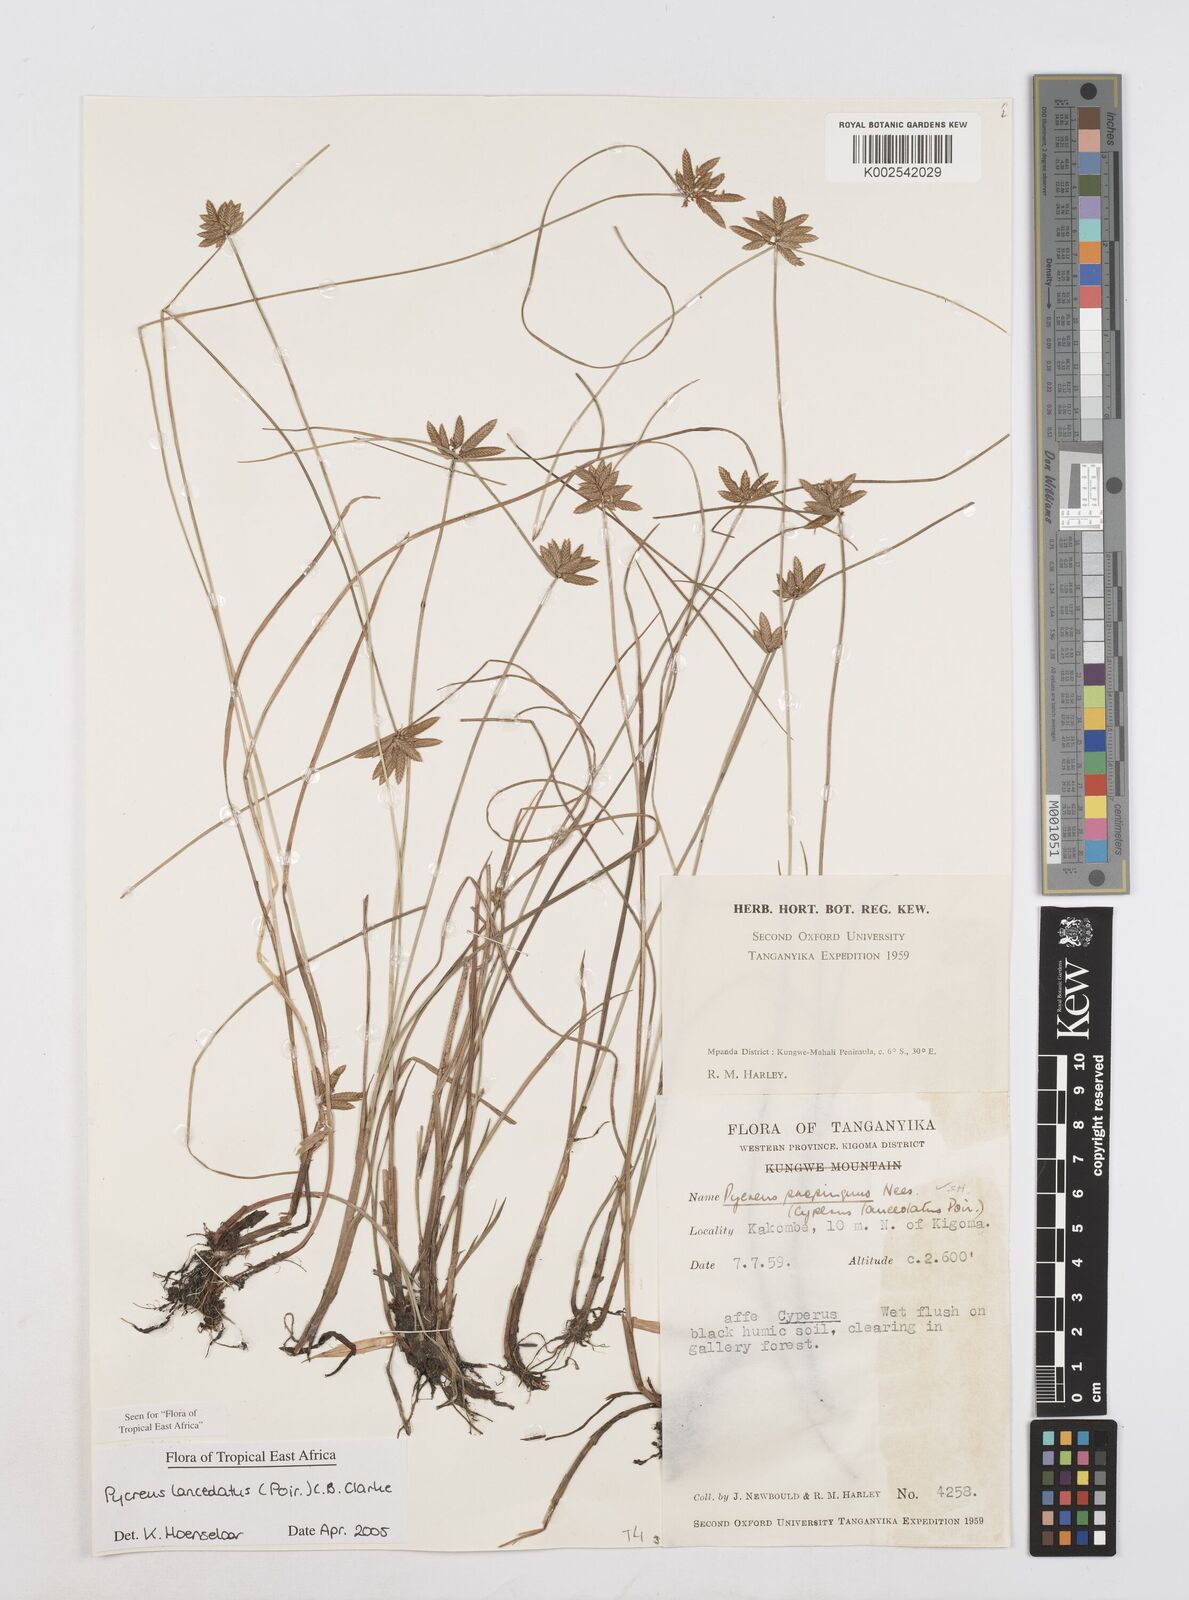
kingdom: Plantae
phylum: Tracheophyta
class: Liliopsida
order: Poales
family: Cyperaceae
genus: Cyperus
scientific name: Cyperus lanceolatus
